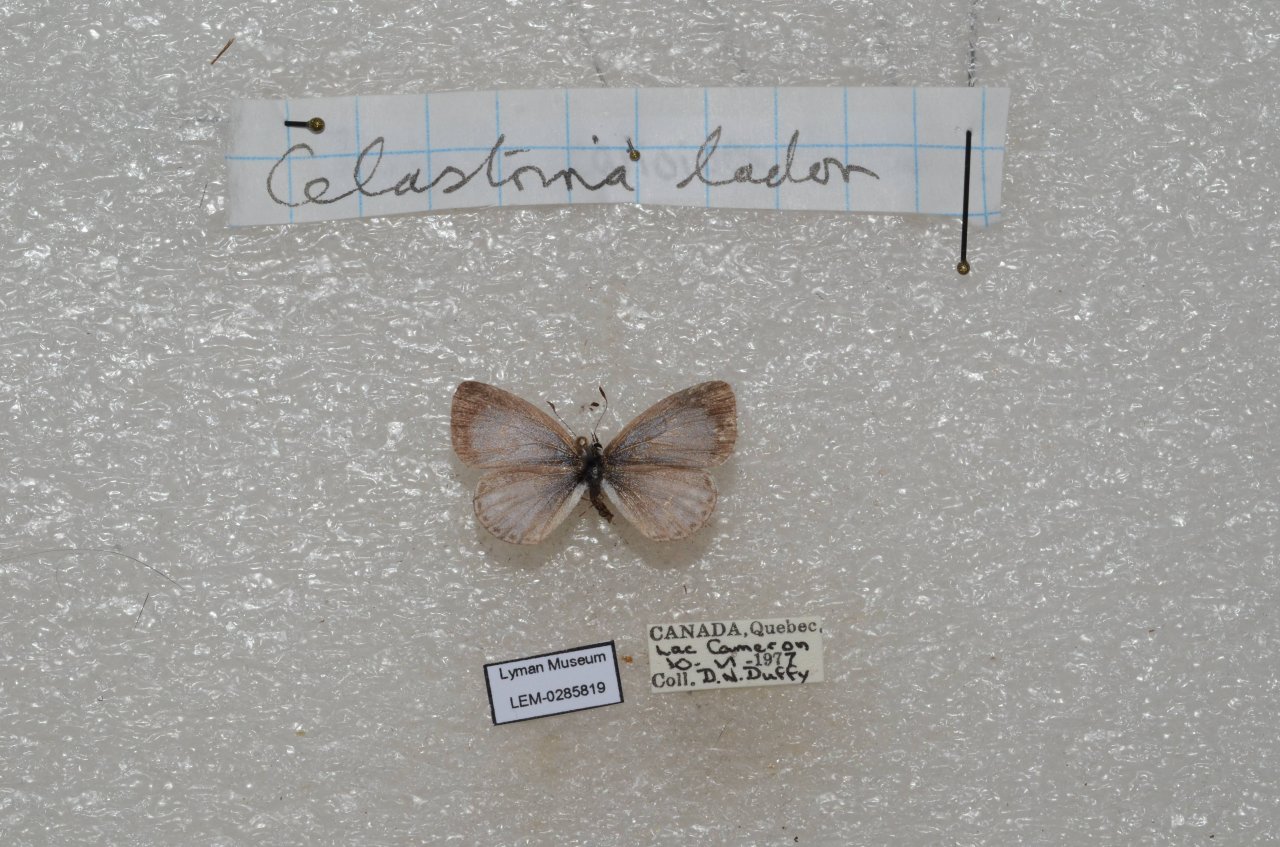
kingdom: Animalia
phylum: Arthropoda
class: Insecta
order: Lepidoptera
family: Lycaenidae
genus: Celastrina
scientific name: Celastrina lucia
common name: Northern Spring Azure
